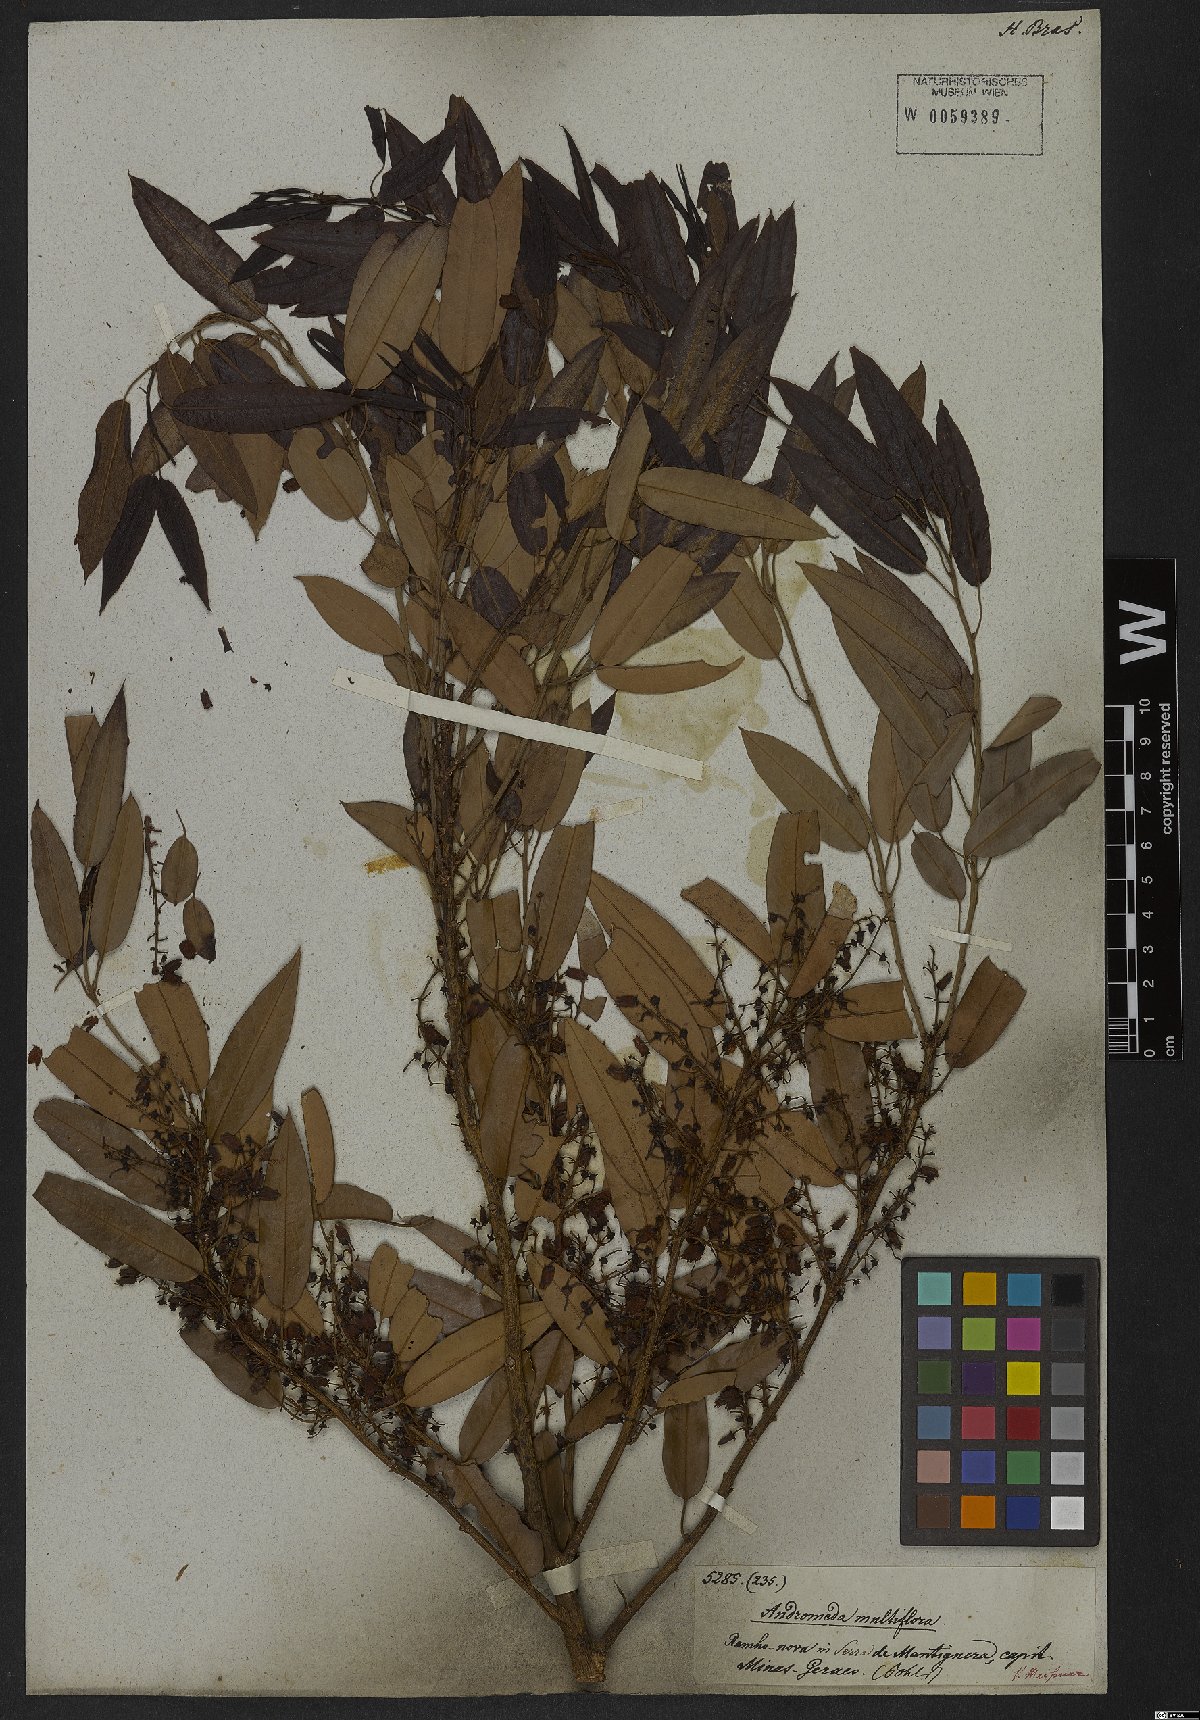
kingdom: Plantae
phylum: Tracheophyta
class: Magnoliopsida
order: Ericales
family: Ericaceae
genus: Agarista
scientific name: Agarista eucalyptoides
